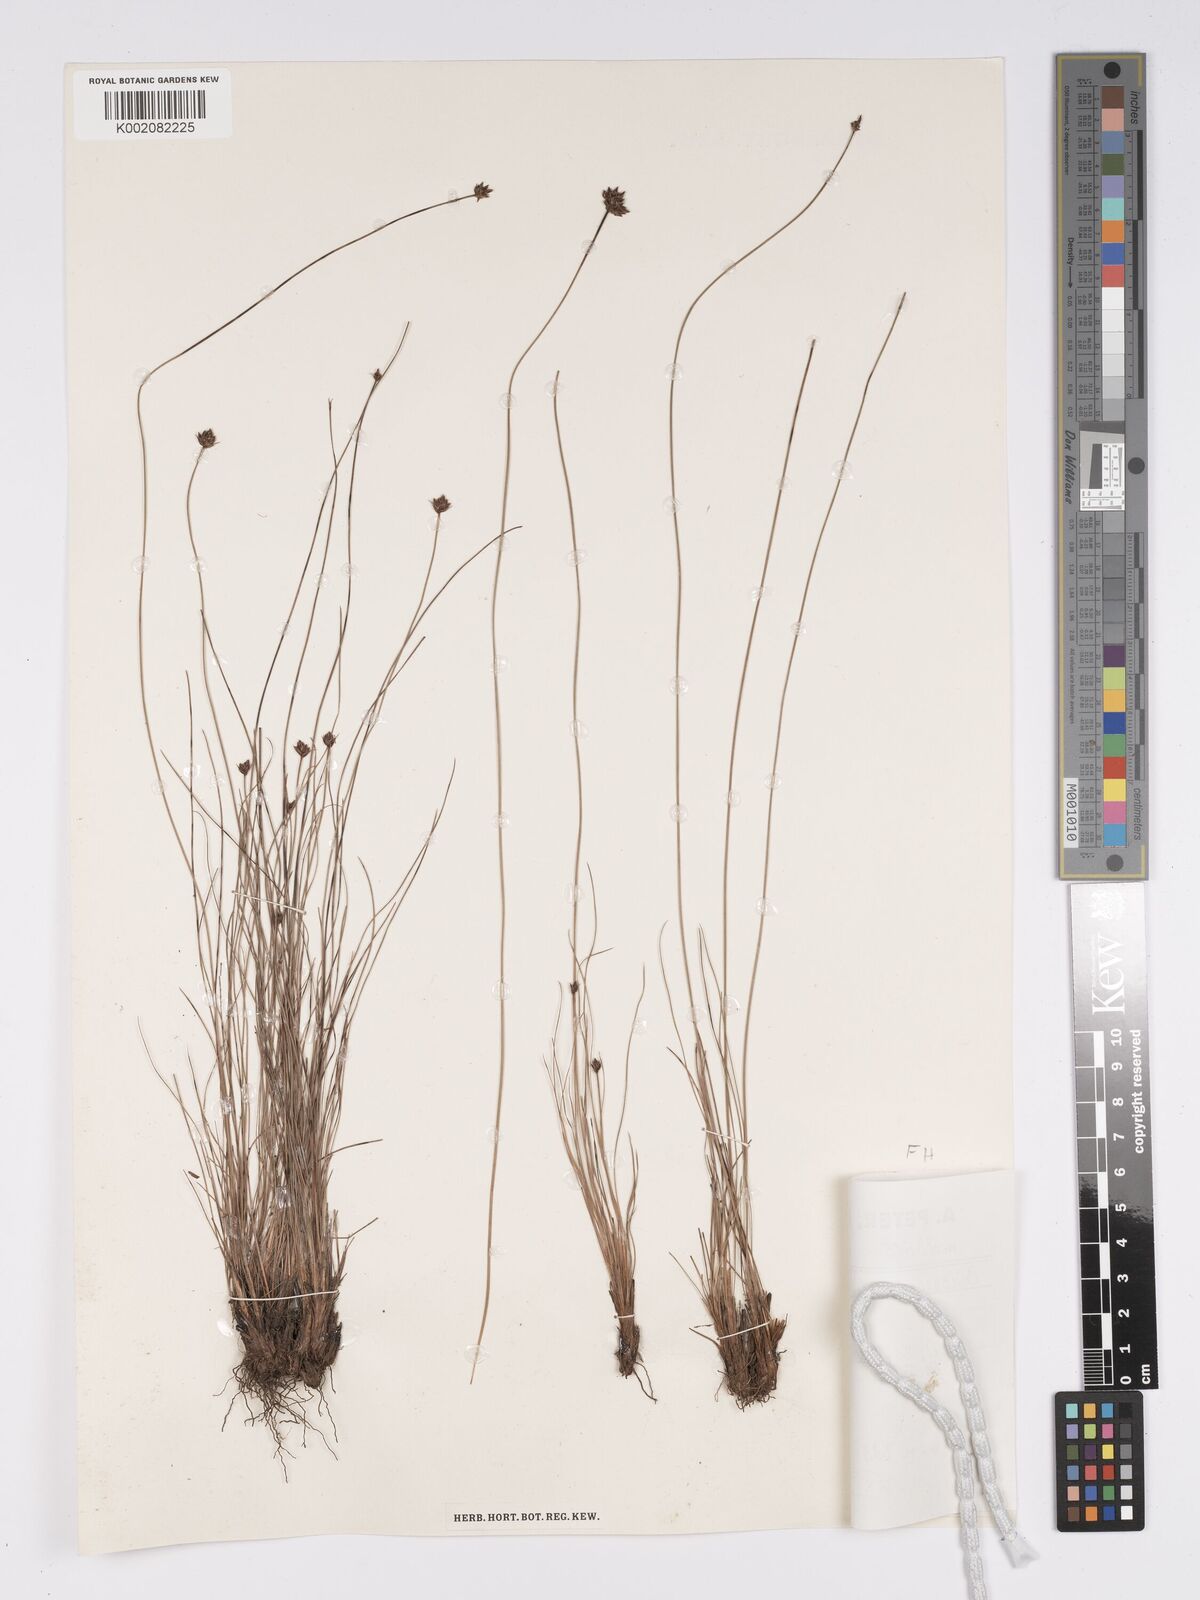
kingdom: Plantae
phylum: Tracheophyta
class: Liliopsida
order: Poales
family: Cyperaceae
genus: Bulbostylis
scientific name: Bulbostylis scabricaulis
